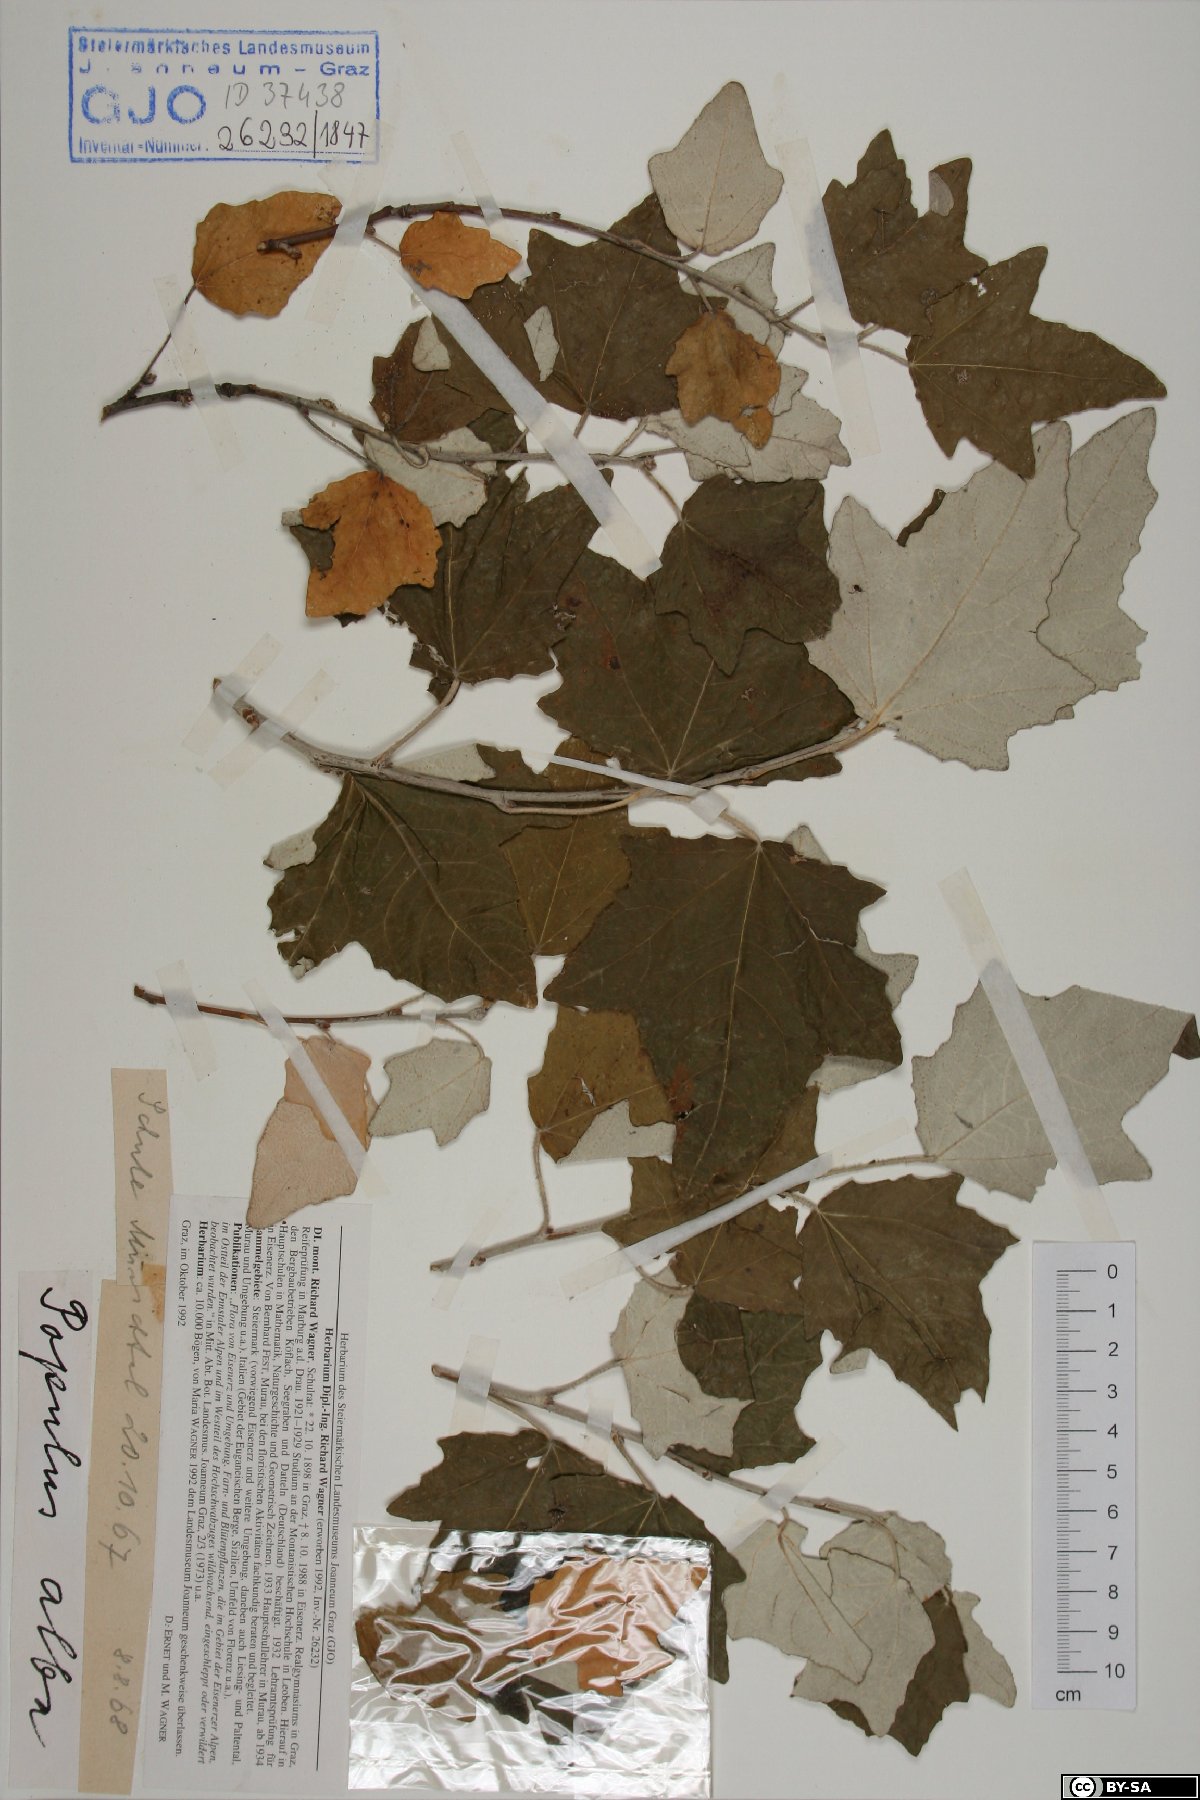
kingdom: Plantae
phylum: Tracheophyta
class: Magnoliopsida
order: Malpighiales
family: Salicaceae
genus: Populus
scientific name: Populus alba
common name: White poplar
